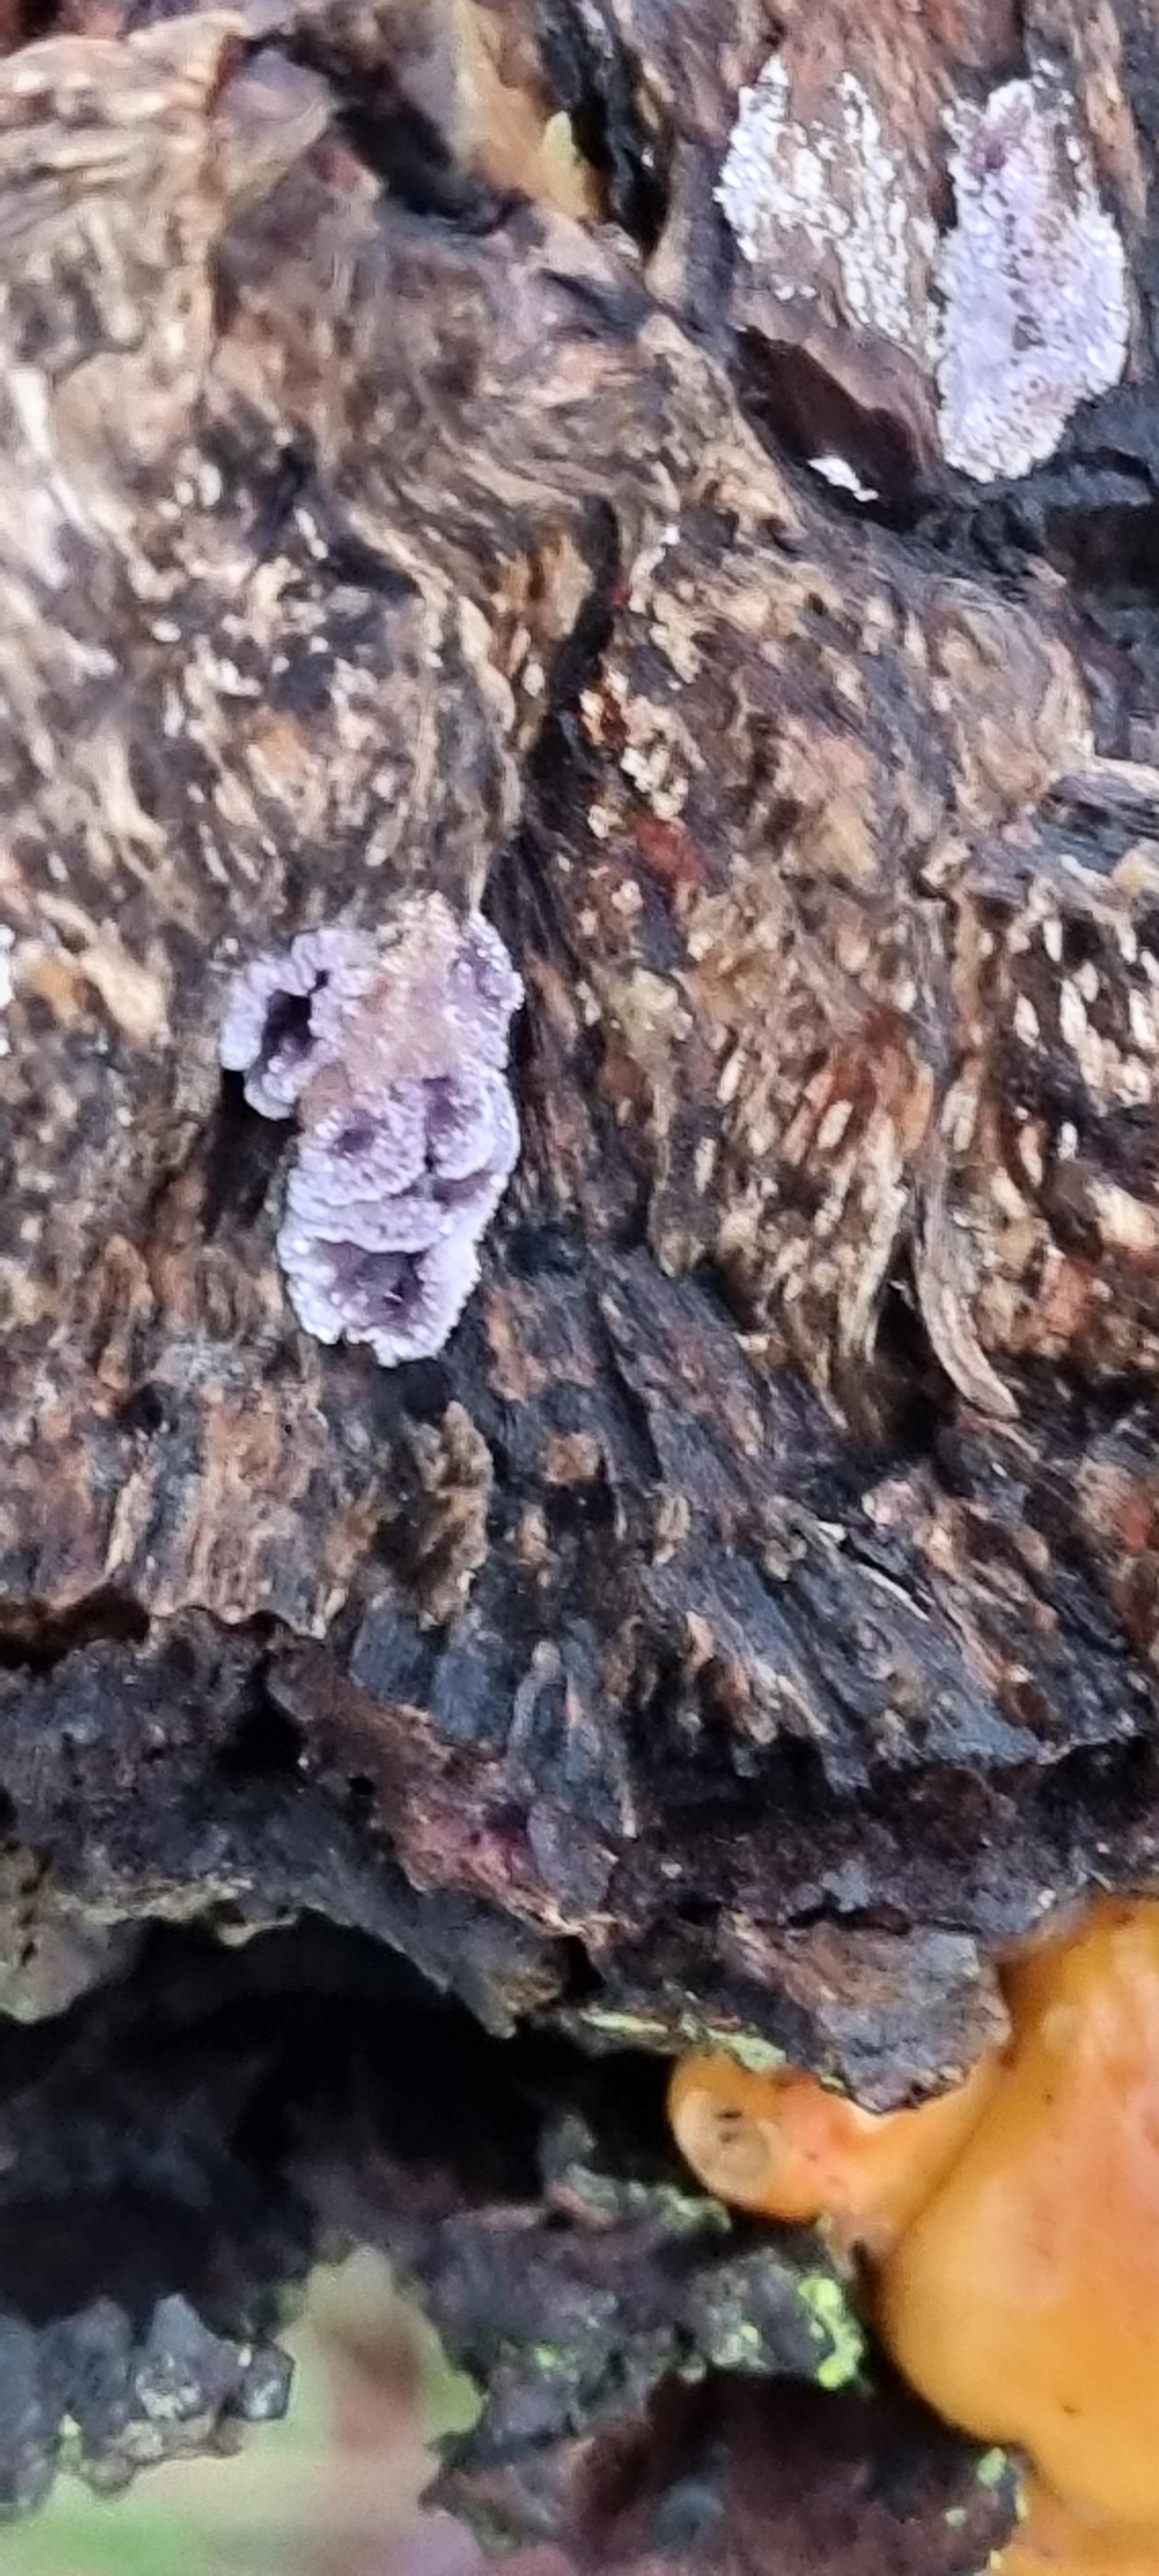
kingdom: Fungi
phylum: Basidiomycota
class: Agaricomycetes
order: Agaricales
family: Cyphellaceae
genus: Chondrostereum
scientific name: Chondrostereum purpureum
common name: purpurlædersvamp
